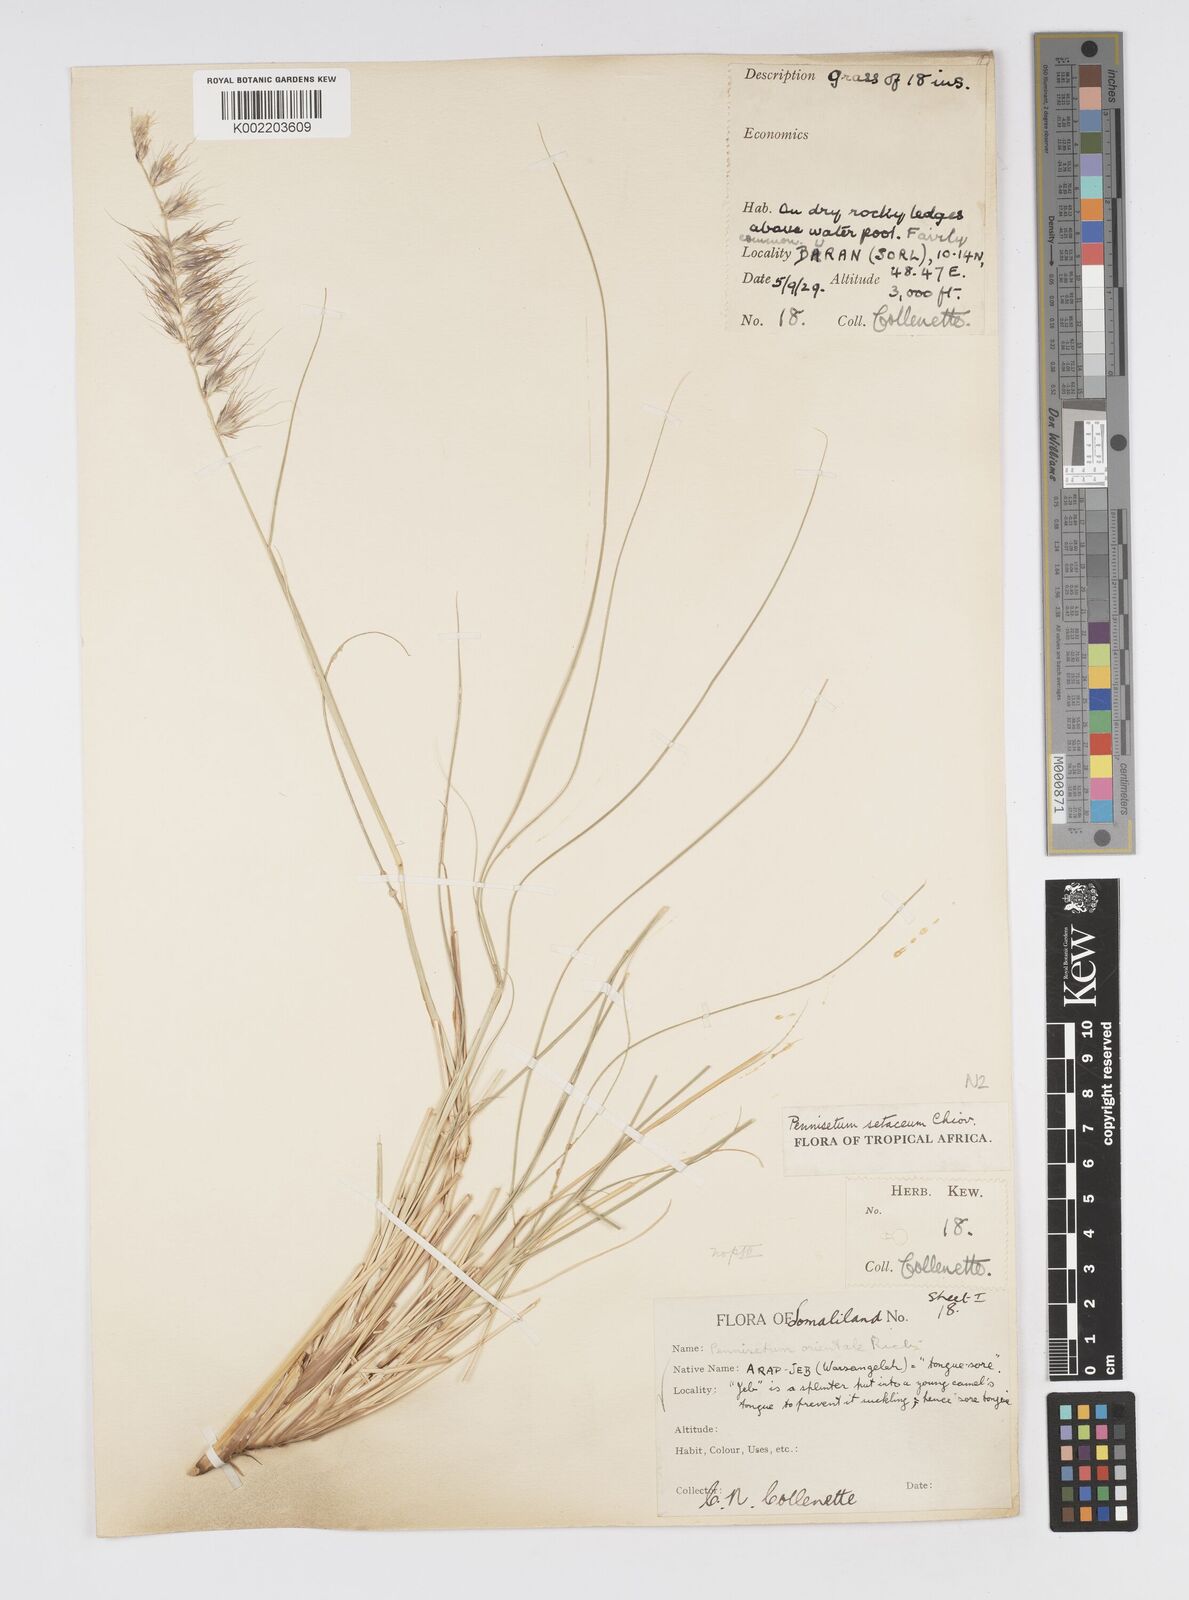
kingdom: Plantae
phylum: Tracheophyta
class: Liliopsida
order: Poales
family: Poaceae
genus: Cenchrus
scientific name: Cenchrus setaceus
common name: Crimson fountaingrass
